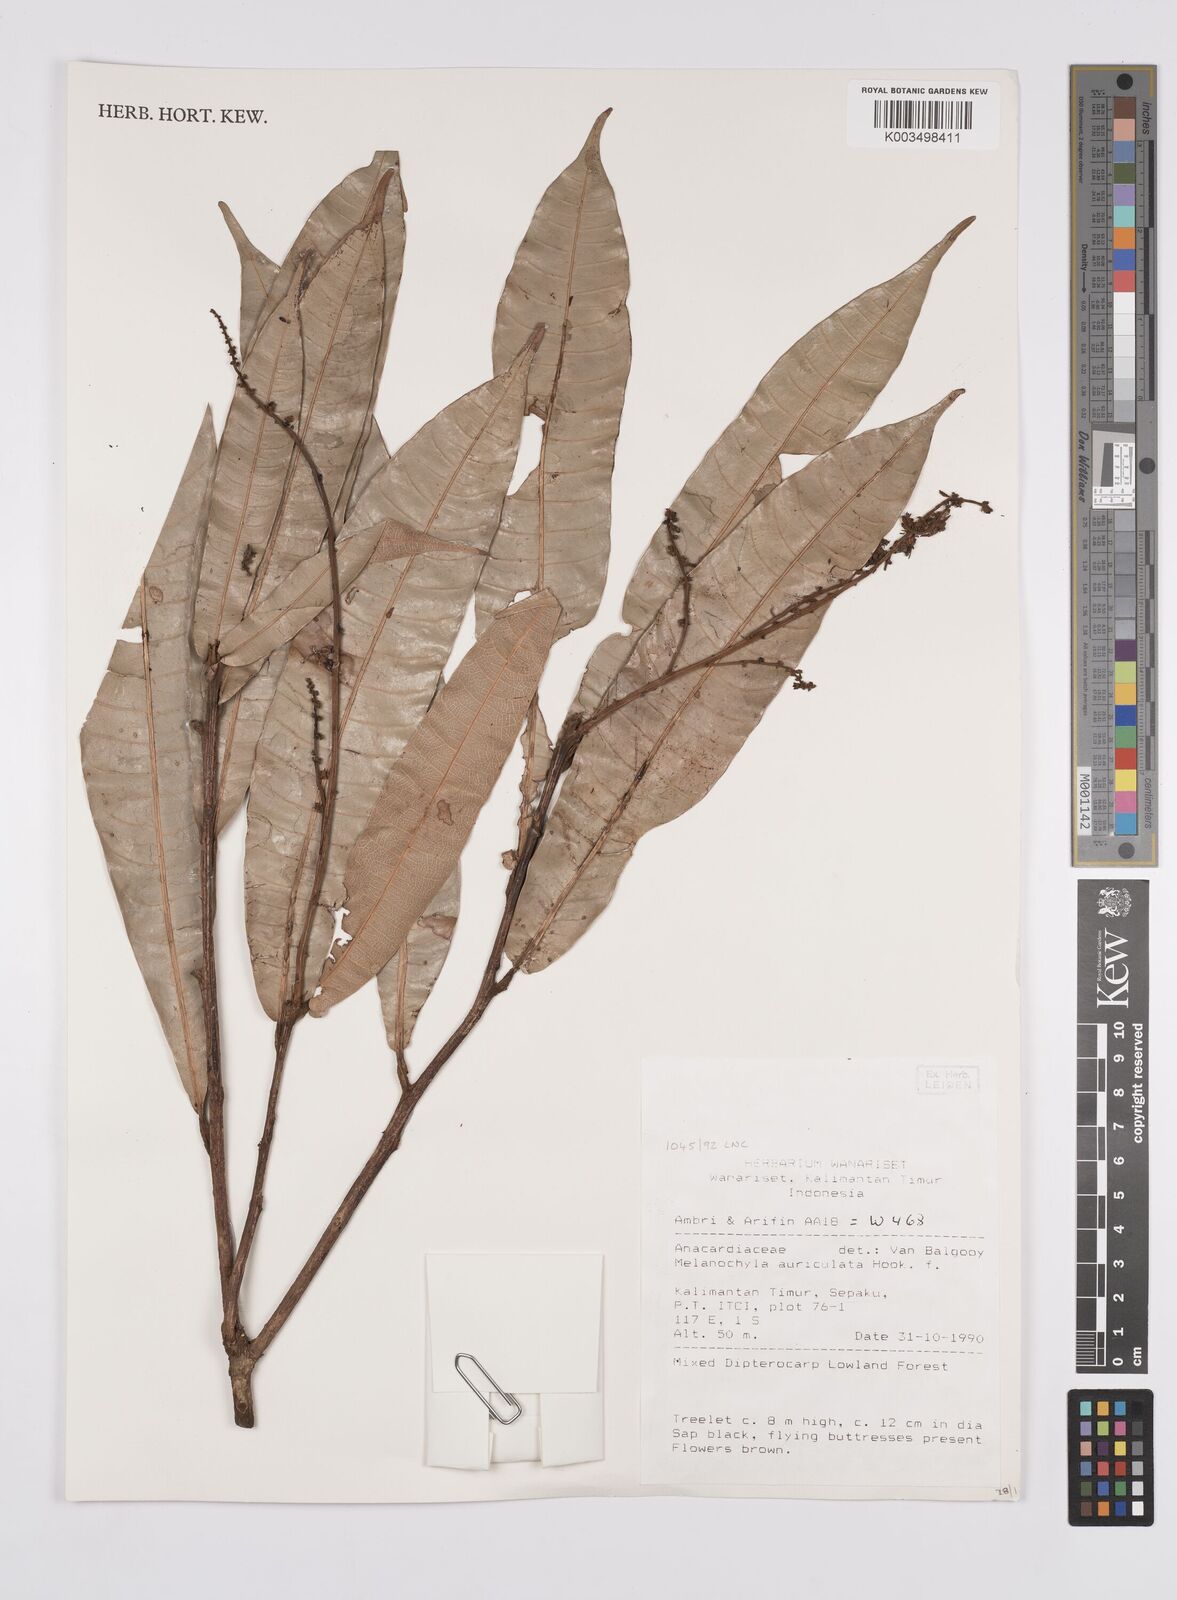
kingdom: Plantae
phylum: Tracheophyta
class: Magnoliopsida
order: Sapindales
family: Anacardiaceae
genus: Melanochyla
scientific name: Melanochyla auriculata
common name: Swamp rengas
